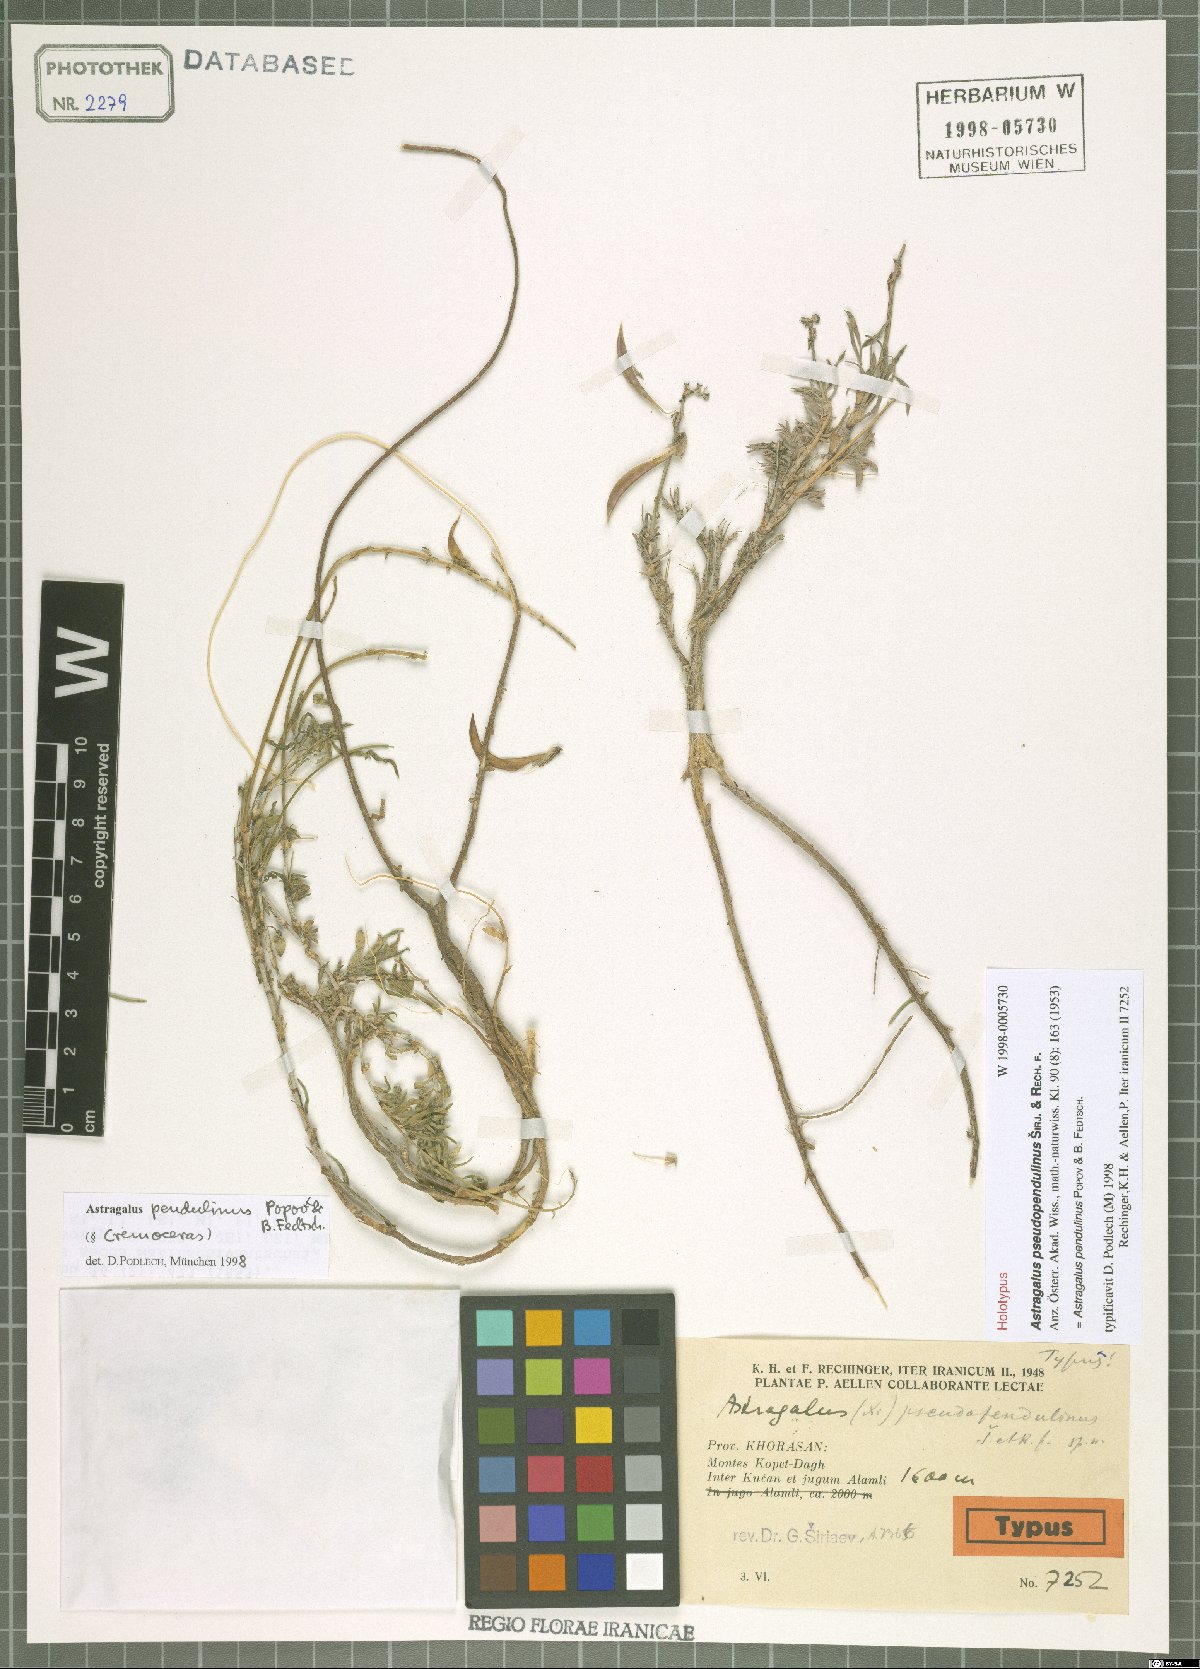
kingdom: Plantae
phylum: Tracheophyta
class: Magnoliopsida
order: Fabales
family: Fabaceae
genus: Astragalus
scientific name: Astragalus pendulinus
